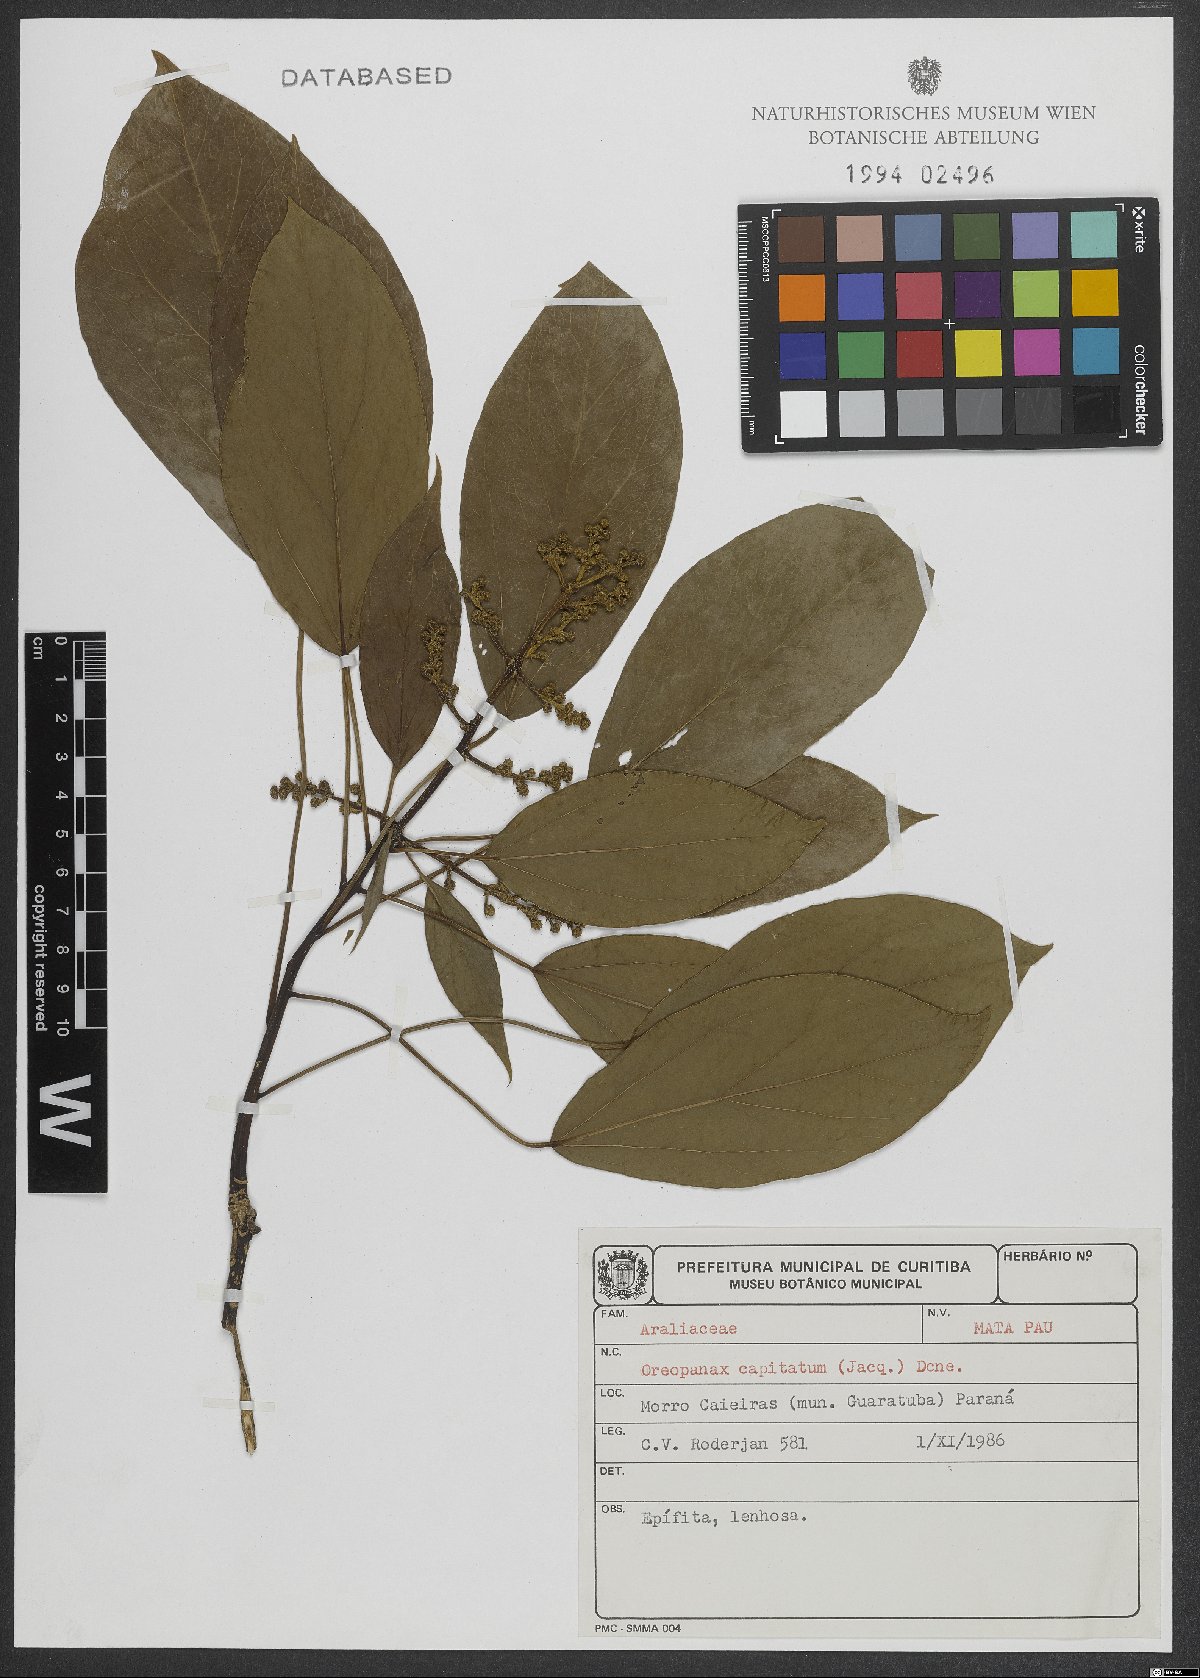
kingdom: Plantae
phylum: Tracheophyta
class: Magnoliopsida
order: Apiales
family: Araliaceae
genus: Oreopanax
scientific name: Oreopanax capitatus
